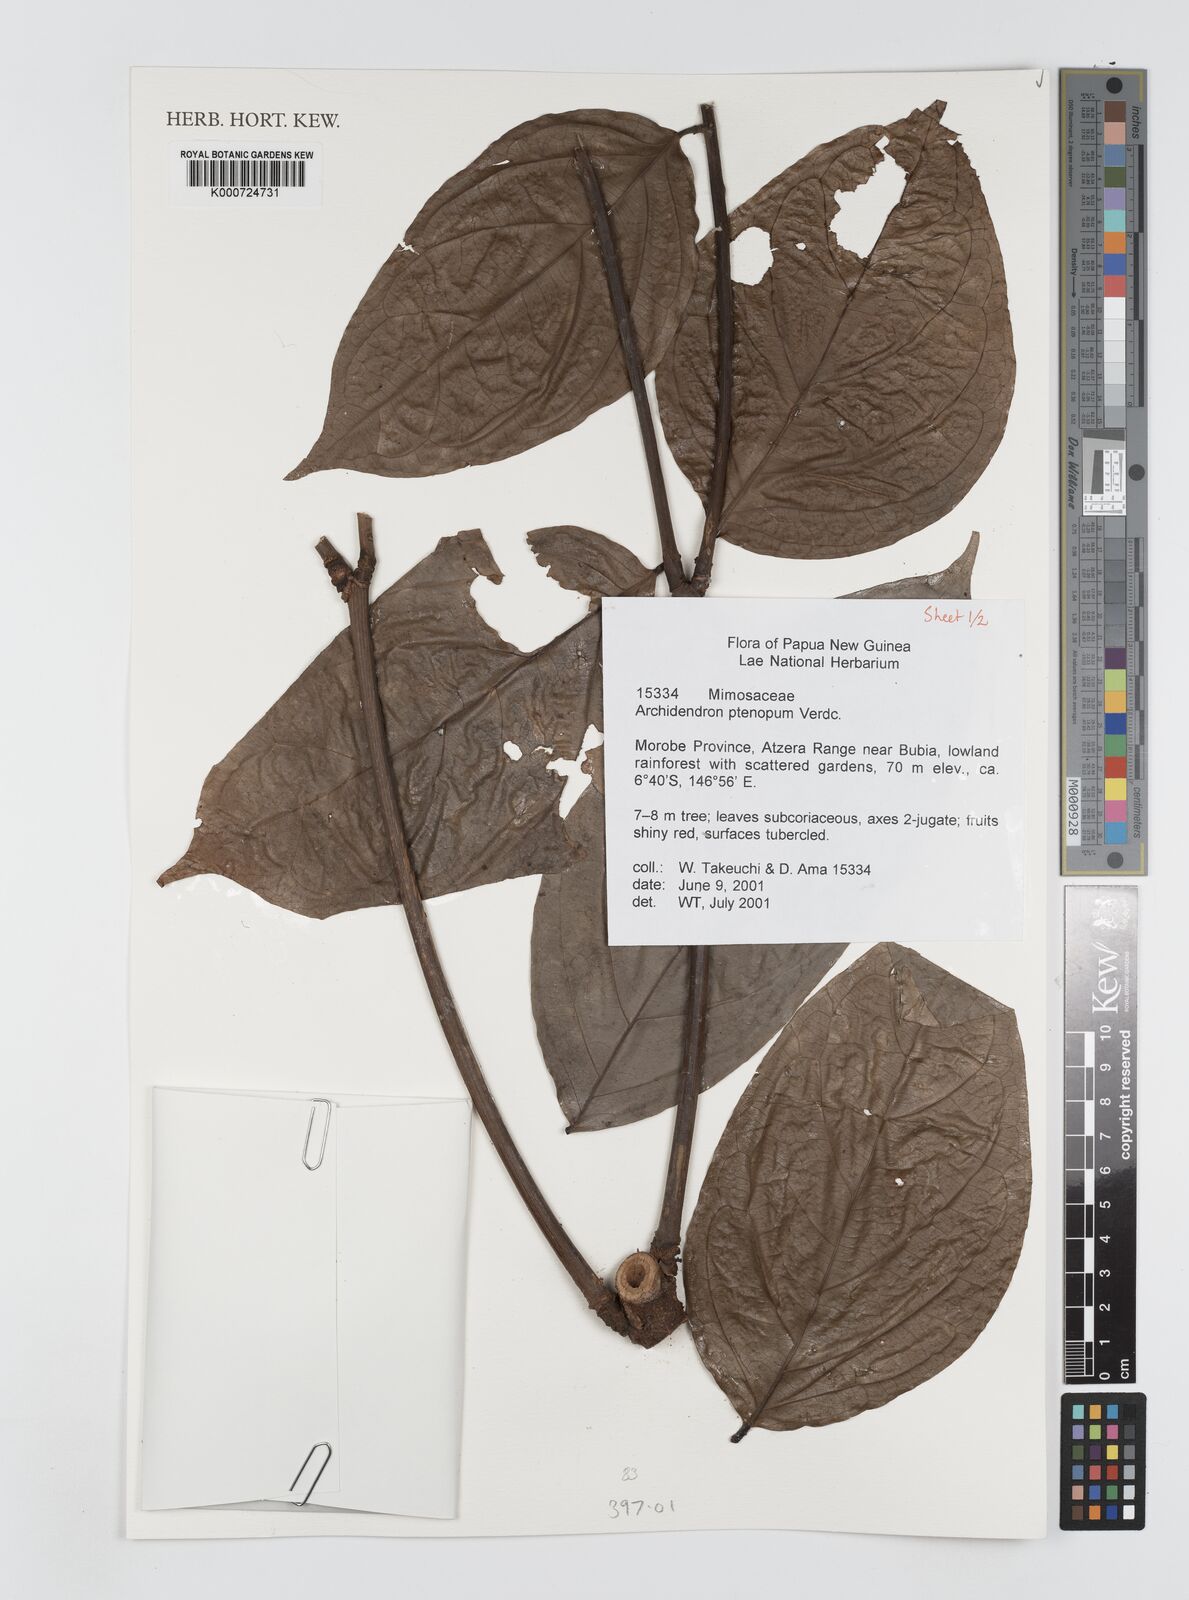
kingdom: Plantae
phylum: Tracheophyta
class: Magnoliopsida
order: Fabales
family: Fabaceae
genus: Archidendron
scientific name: Archidendron ptenopum
